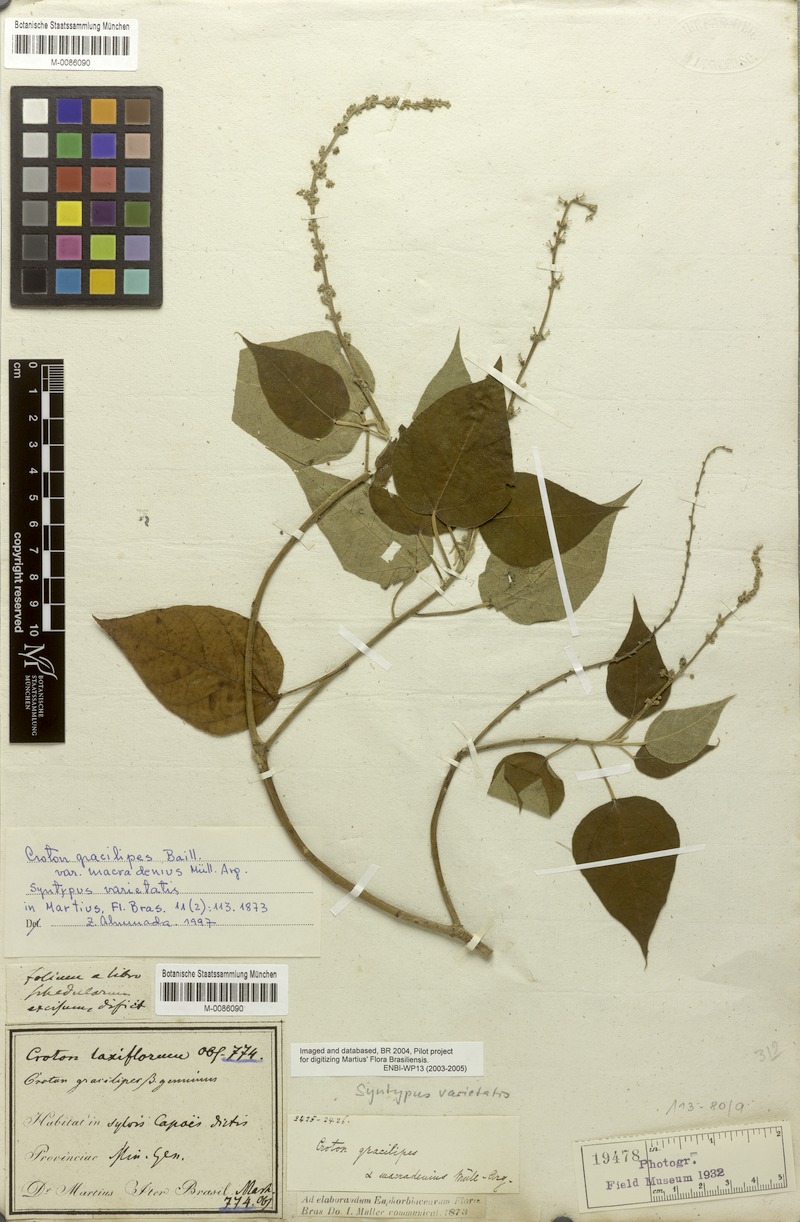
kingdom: Plantae
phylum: Tracheophyta
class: Magnoliopsida
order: Malpighiales
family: Euphorbiaceae
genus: Croton
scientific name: Croton gracilipes
